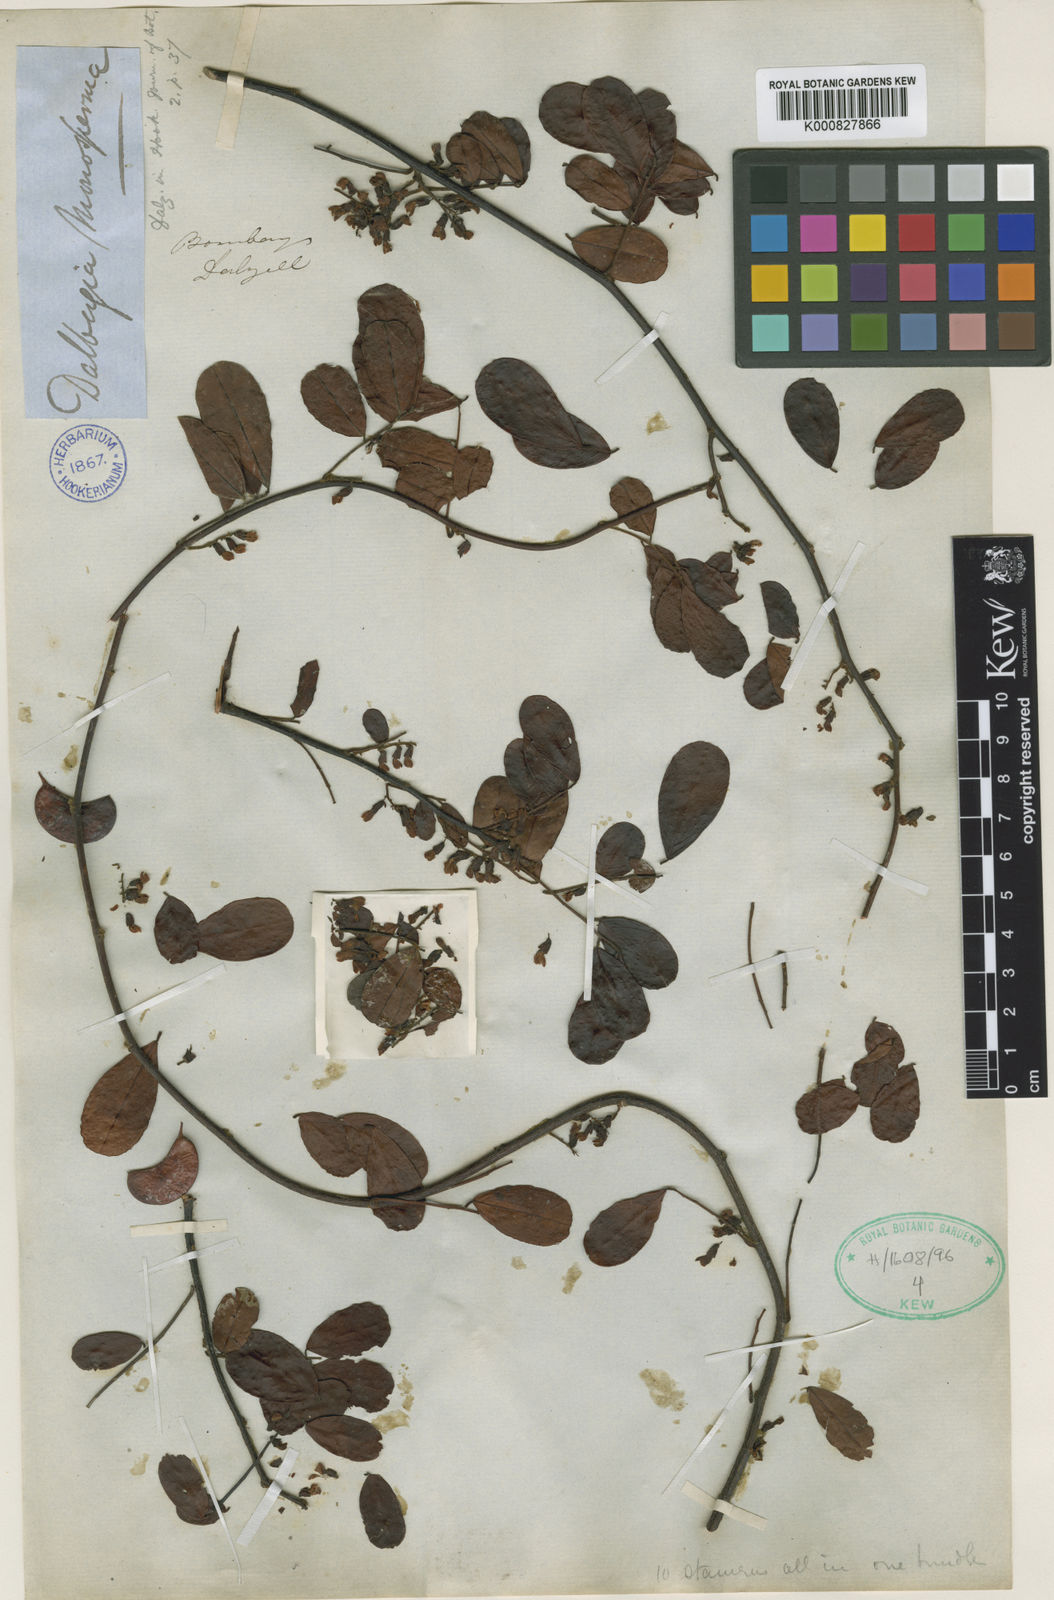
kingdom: Plantae
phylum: Tracheophyta
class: Magnoliopsida
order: Fabales
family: Fabaceae
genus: Dalbergia
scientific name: Dalbergia
